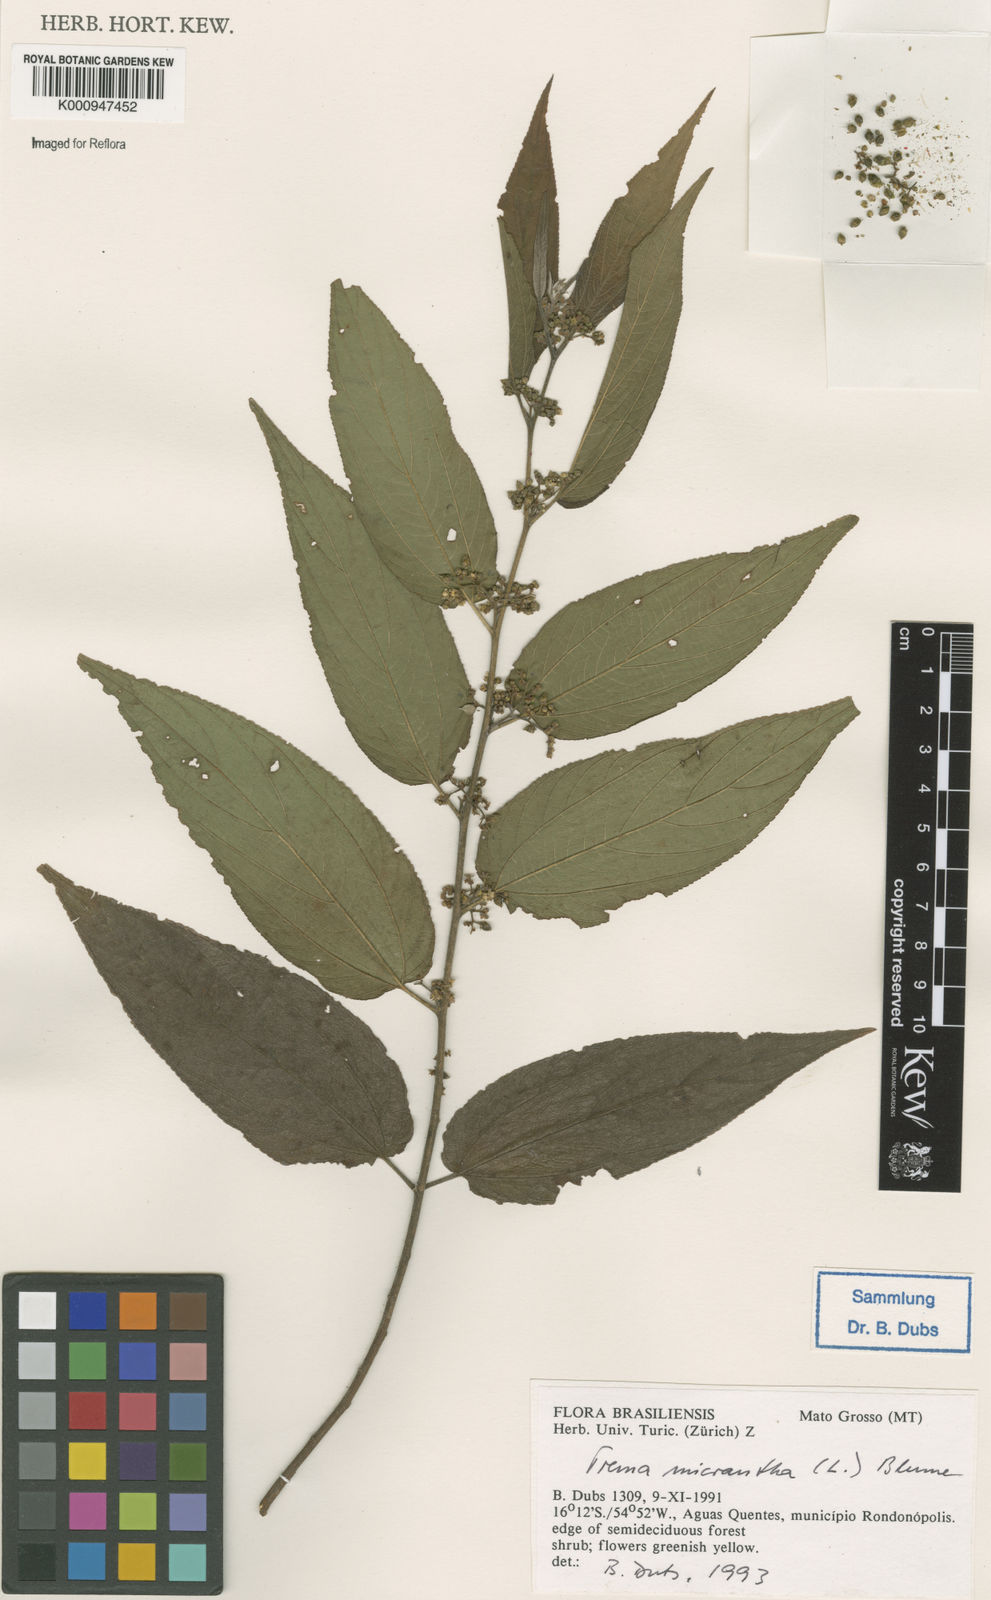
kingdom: Plantae
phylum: Tracheophyta
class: Magnoliopsida
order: Rosales
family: Cannabaceae
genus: Trema
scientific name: Trema micranthum
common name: Jamaican nettletree
